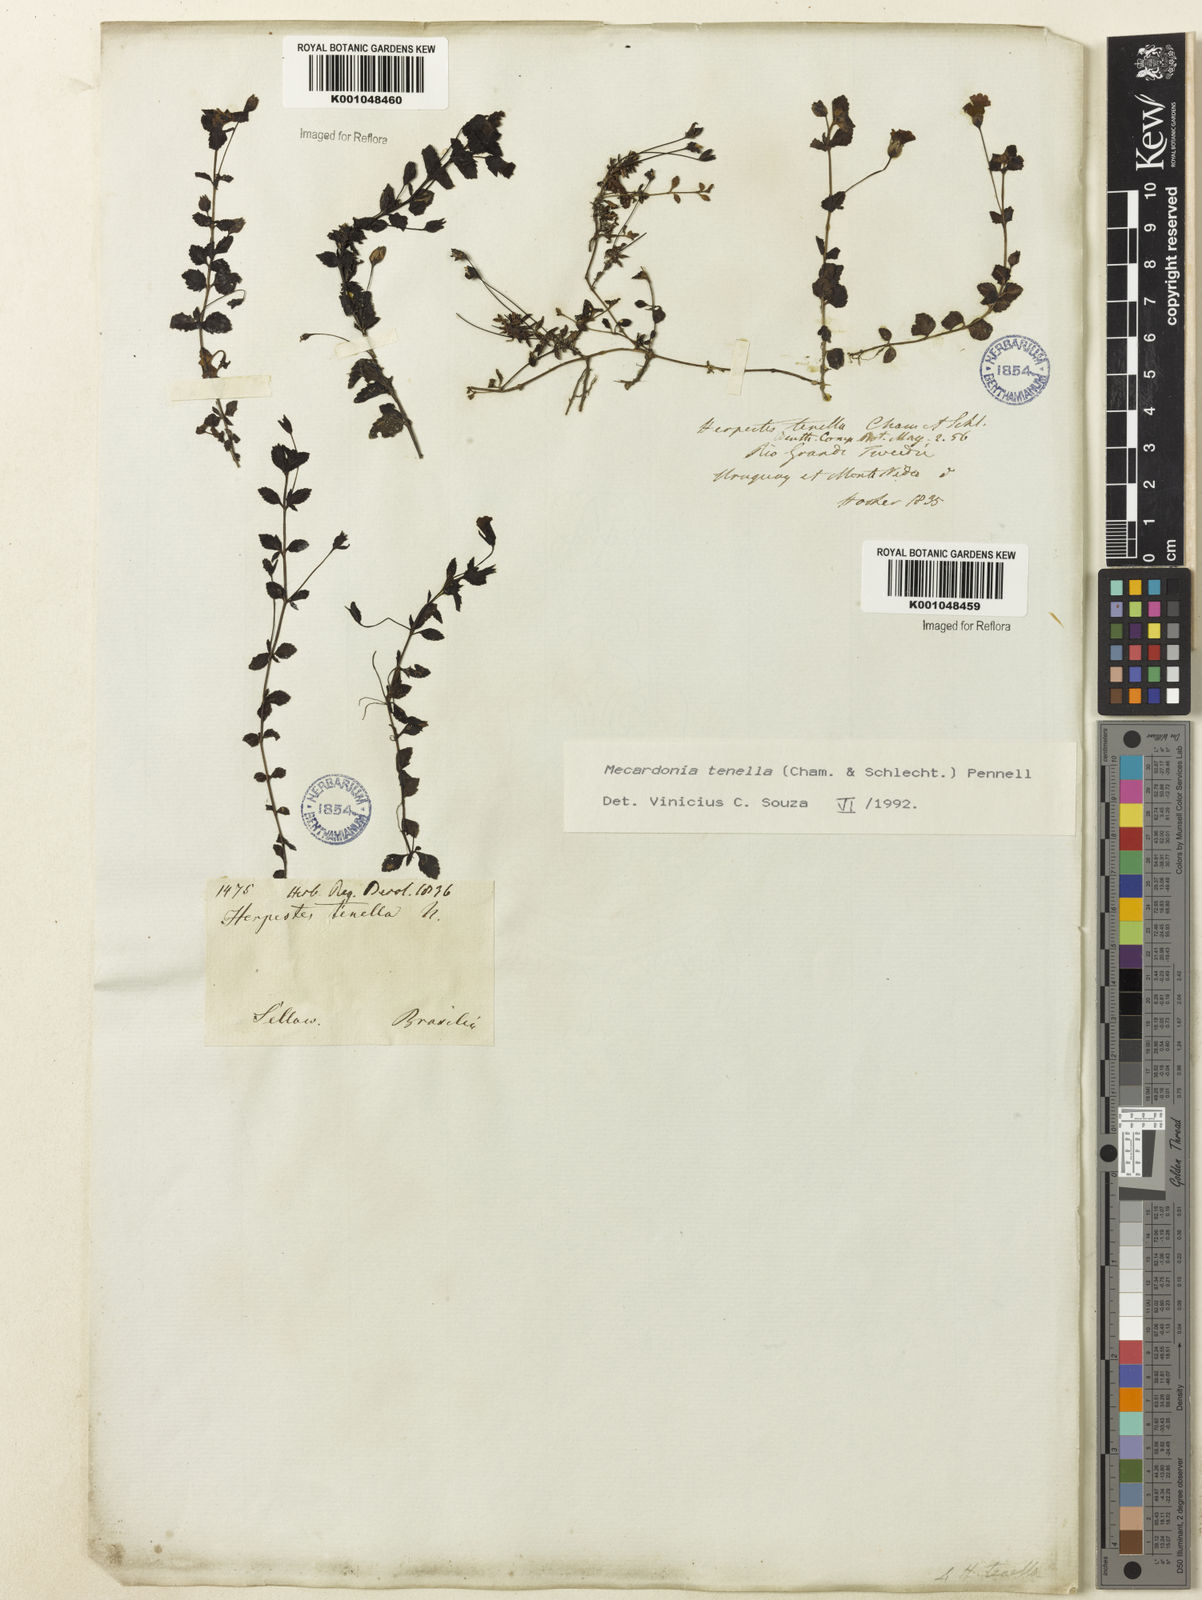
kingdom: Plantae
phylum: Tracheophyta
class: Magnoliopsida
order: Lamiales
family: Plantaginaceae
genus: Mecardonia
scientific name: Mecardonia procumbens
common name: Baby jump-up
